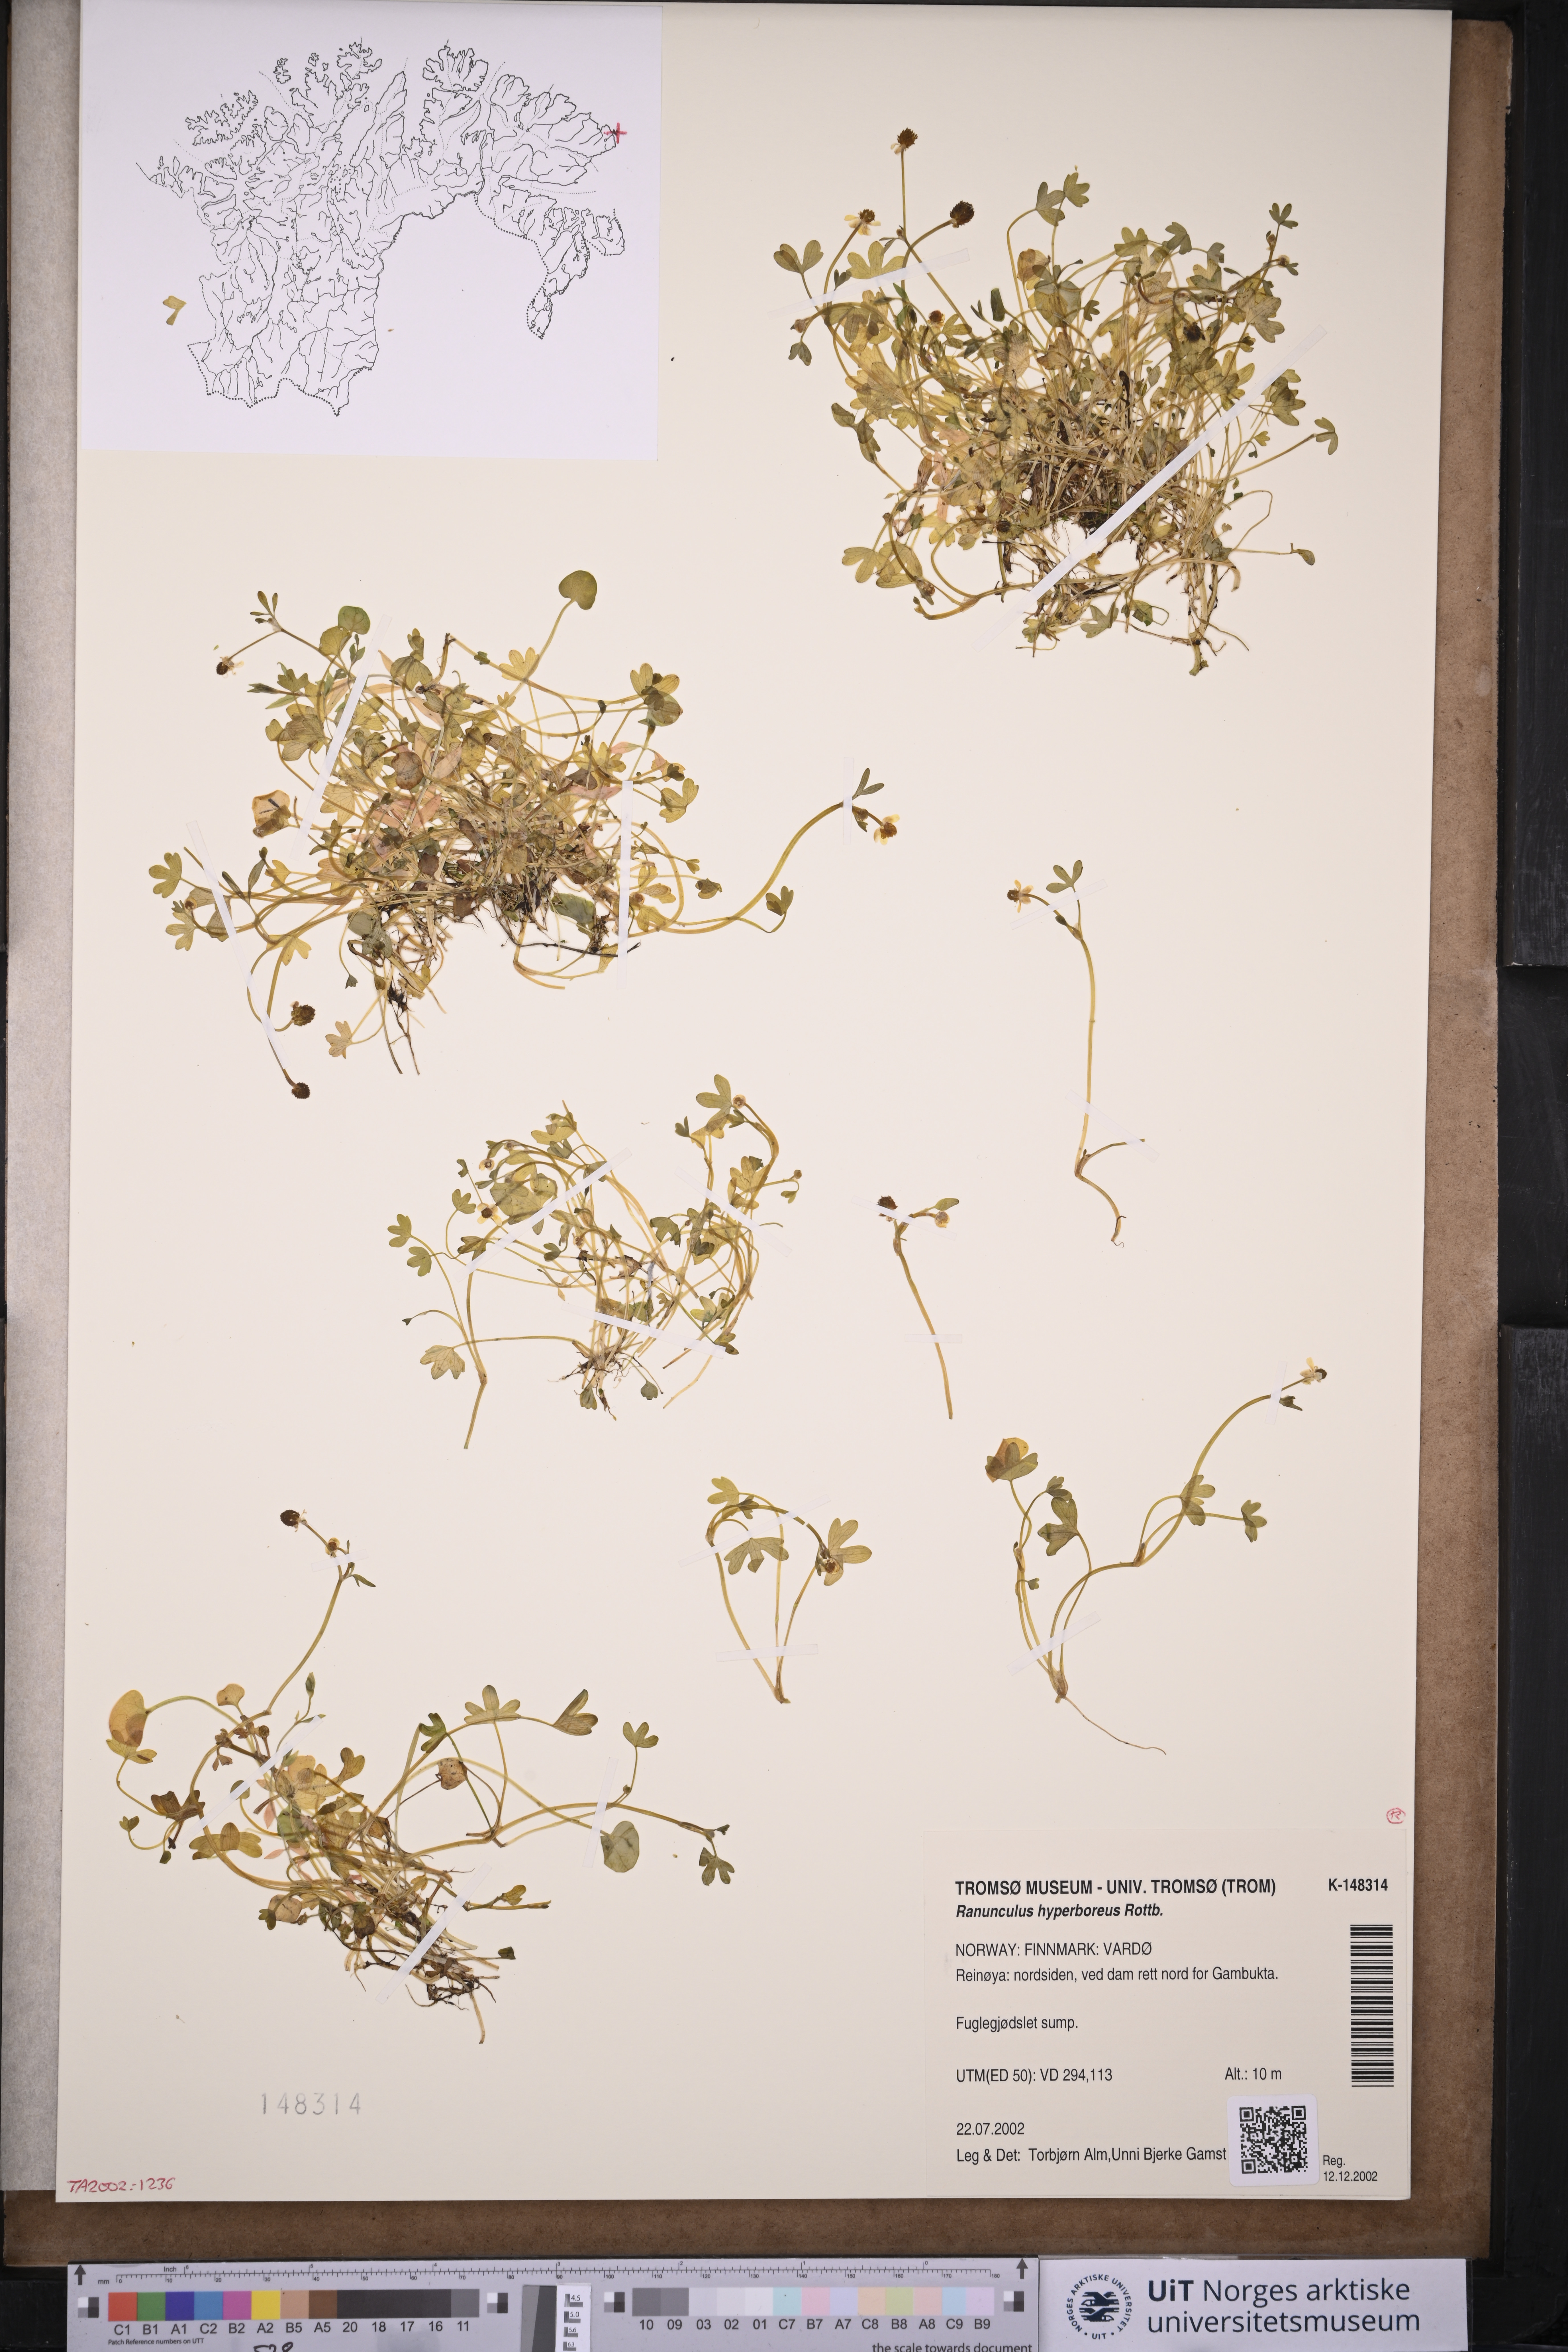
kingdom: Plantae
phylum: Tracheophyta
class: Magnoliopsida
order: Ranunculales
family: Ranunculaceae
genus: Ranunculus
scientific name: Ranunculus hyperboreus
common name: Arctic buttercup
